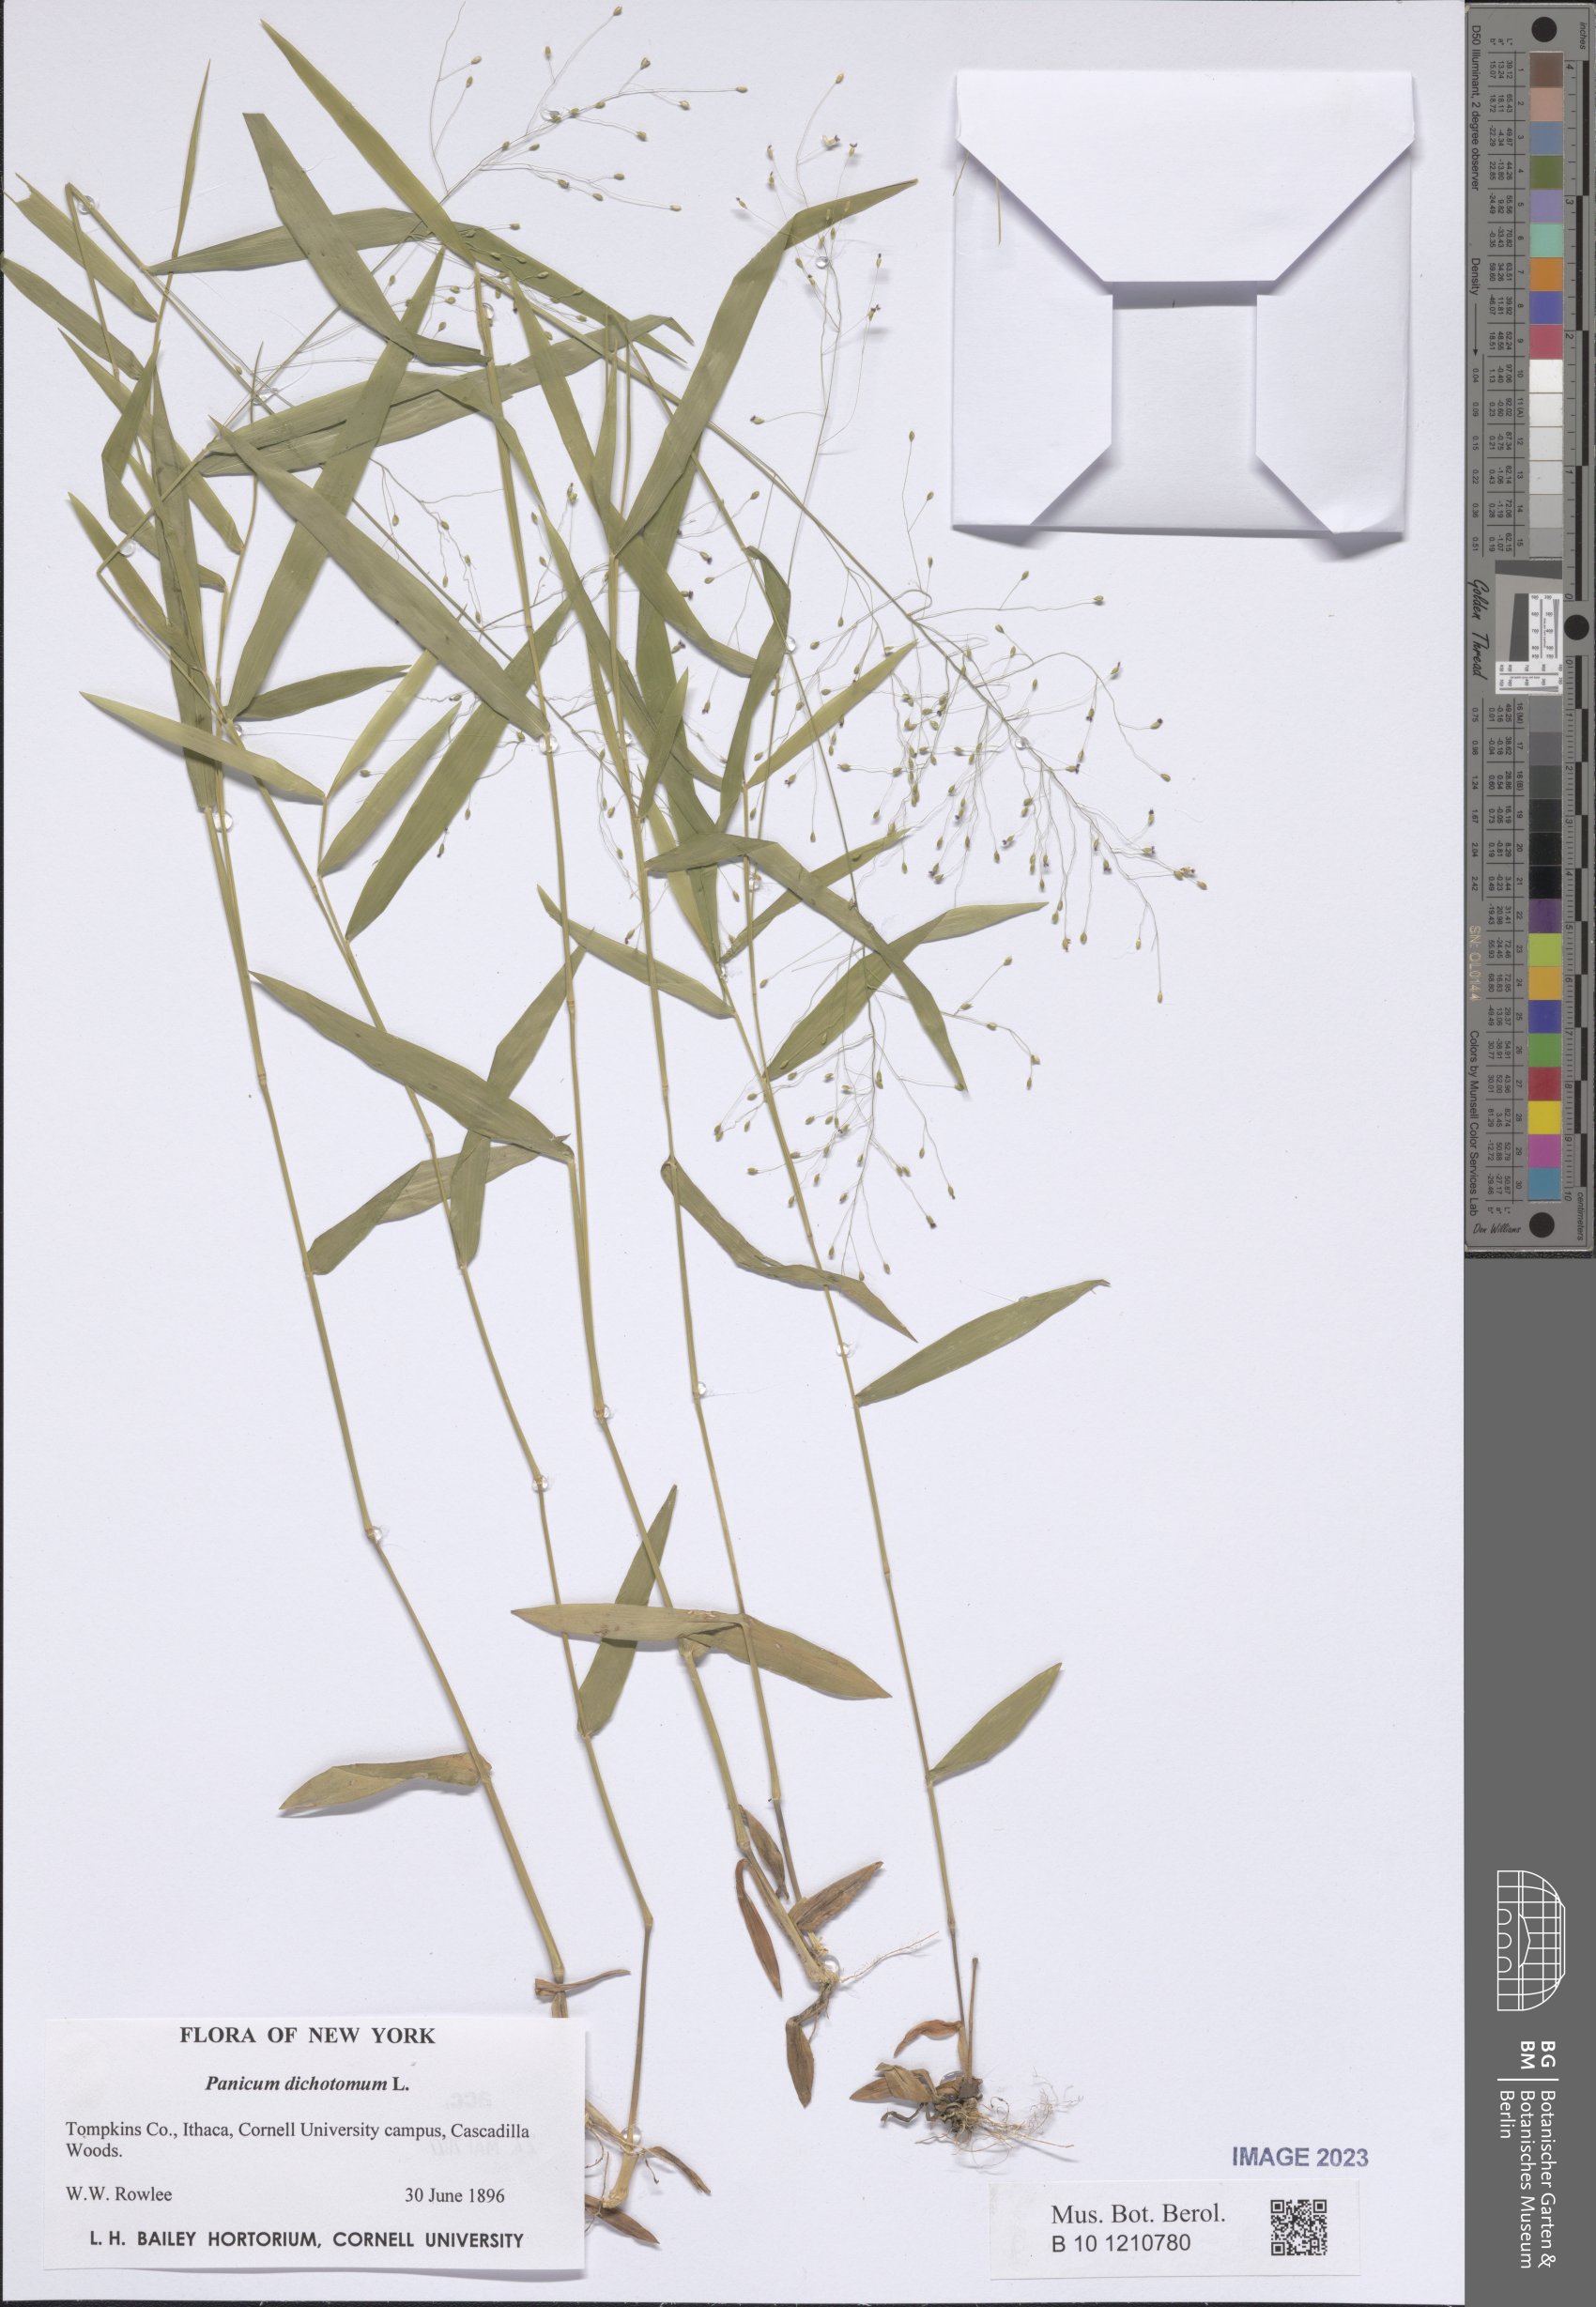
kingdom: Plantae
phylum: Tracheophyta
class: Liliopsida
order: Poales
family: Poaceae
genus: Dichanthelium
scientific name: Dichanthelium dichotomum
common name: Cypress panicgrass
